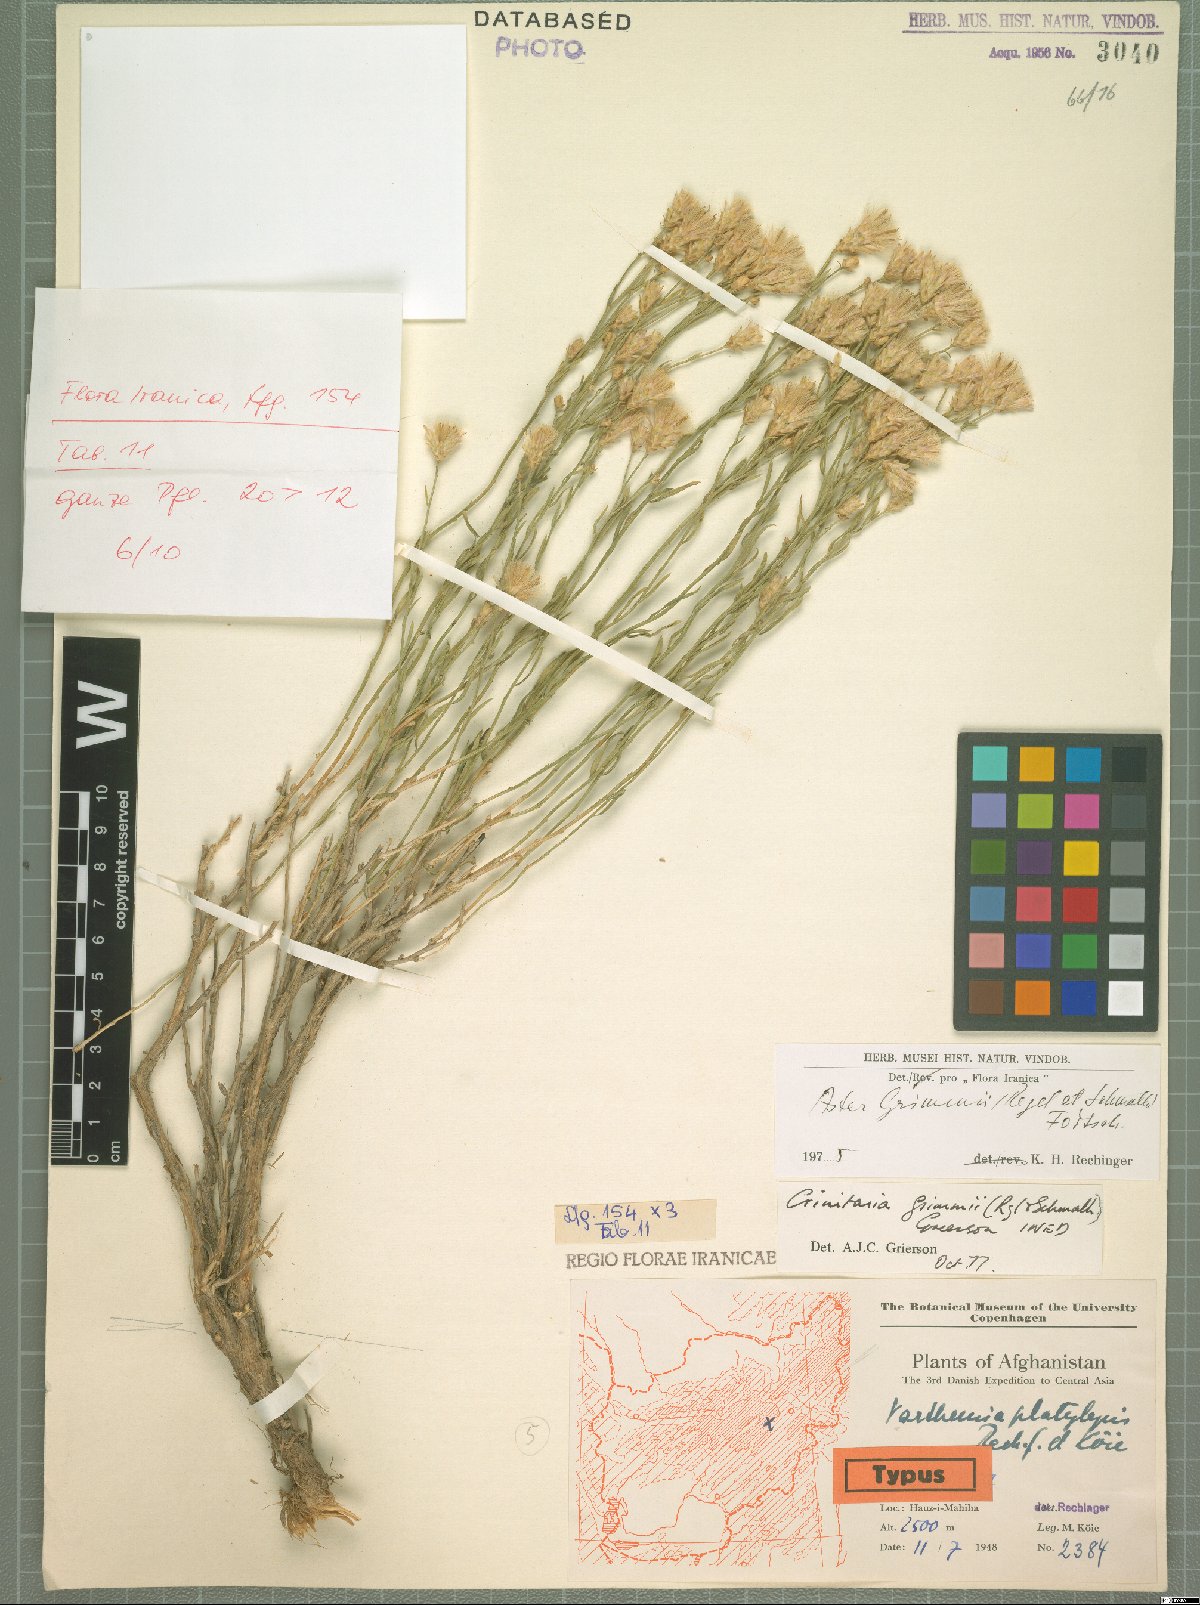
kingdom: Plantae
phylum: Tracheophyta
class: Magnoliopsida
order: Asterales
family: Asteraceae
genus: Galatella
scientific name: Galatella grimmii
